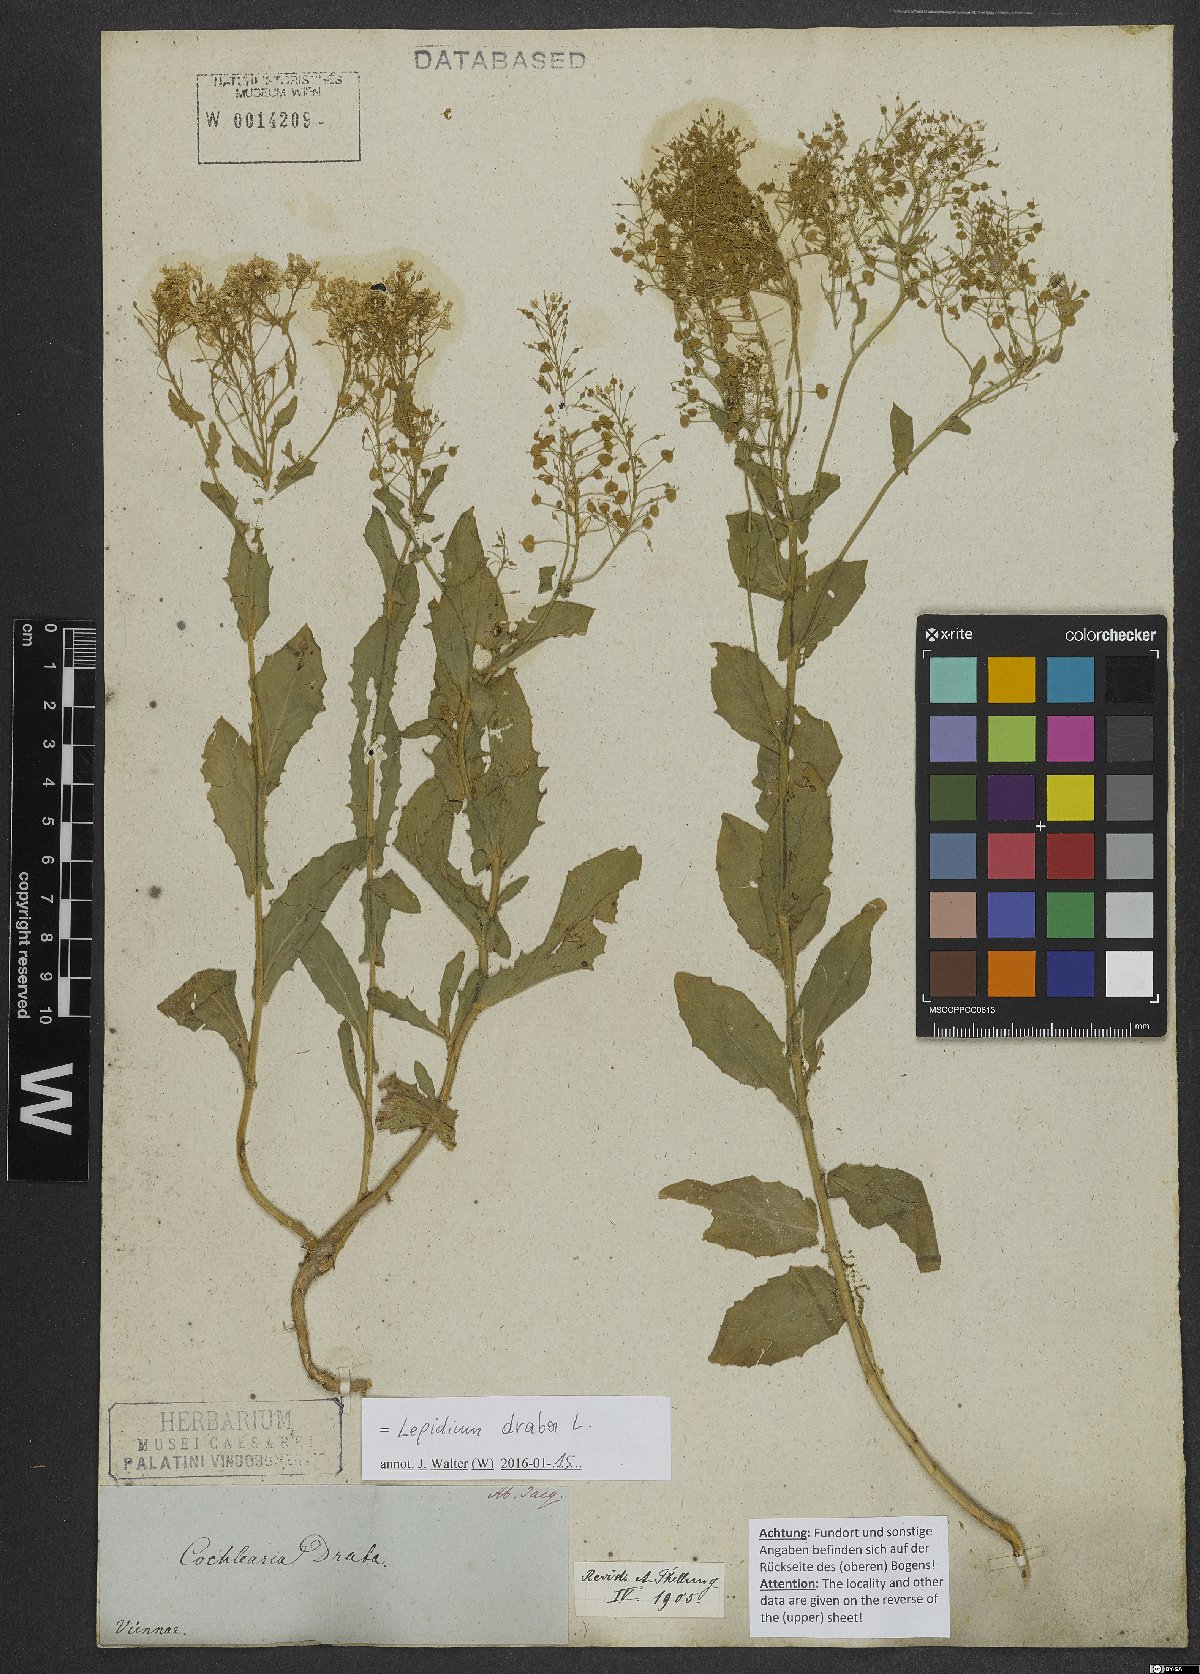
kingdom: Plantae
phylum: Tracheophyta
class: Magnoliopsida
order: Brassicales
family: Brassicaceae
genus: Lepidium
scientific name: Lepidium draba
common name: Hoary cress
